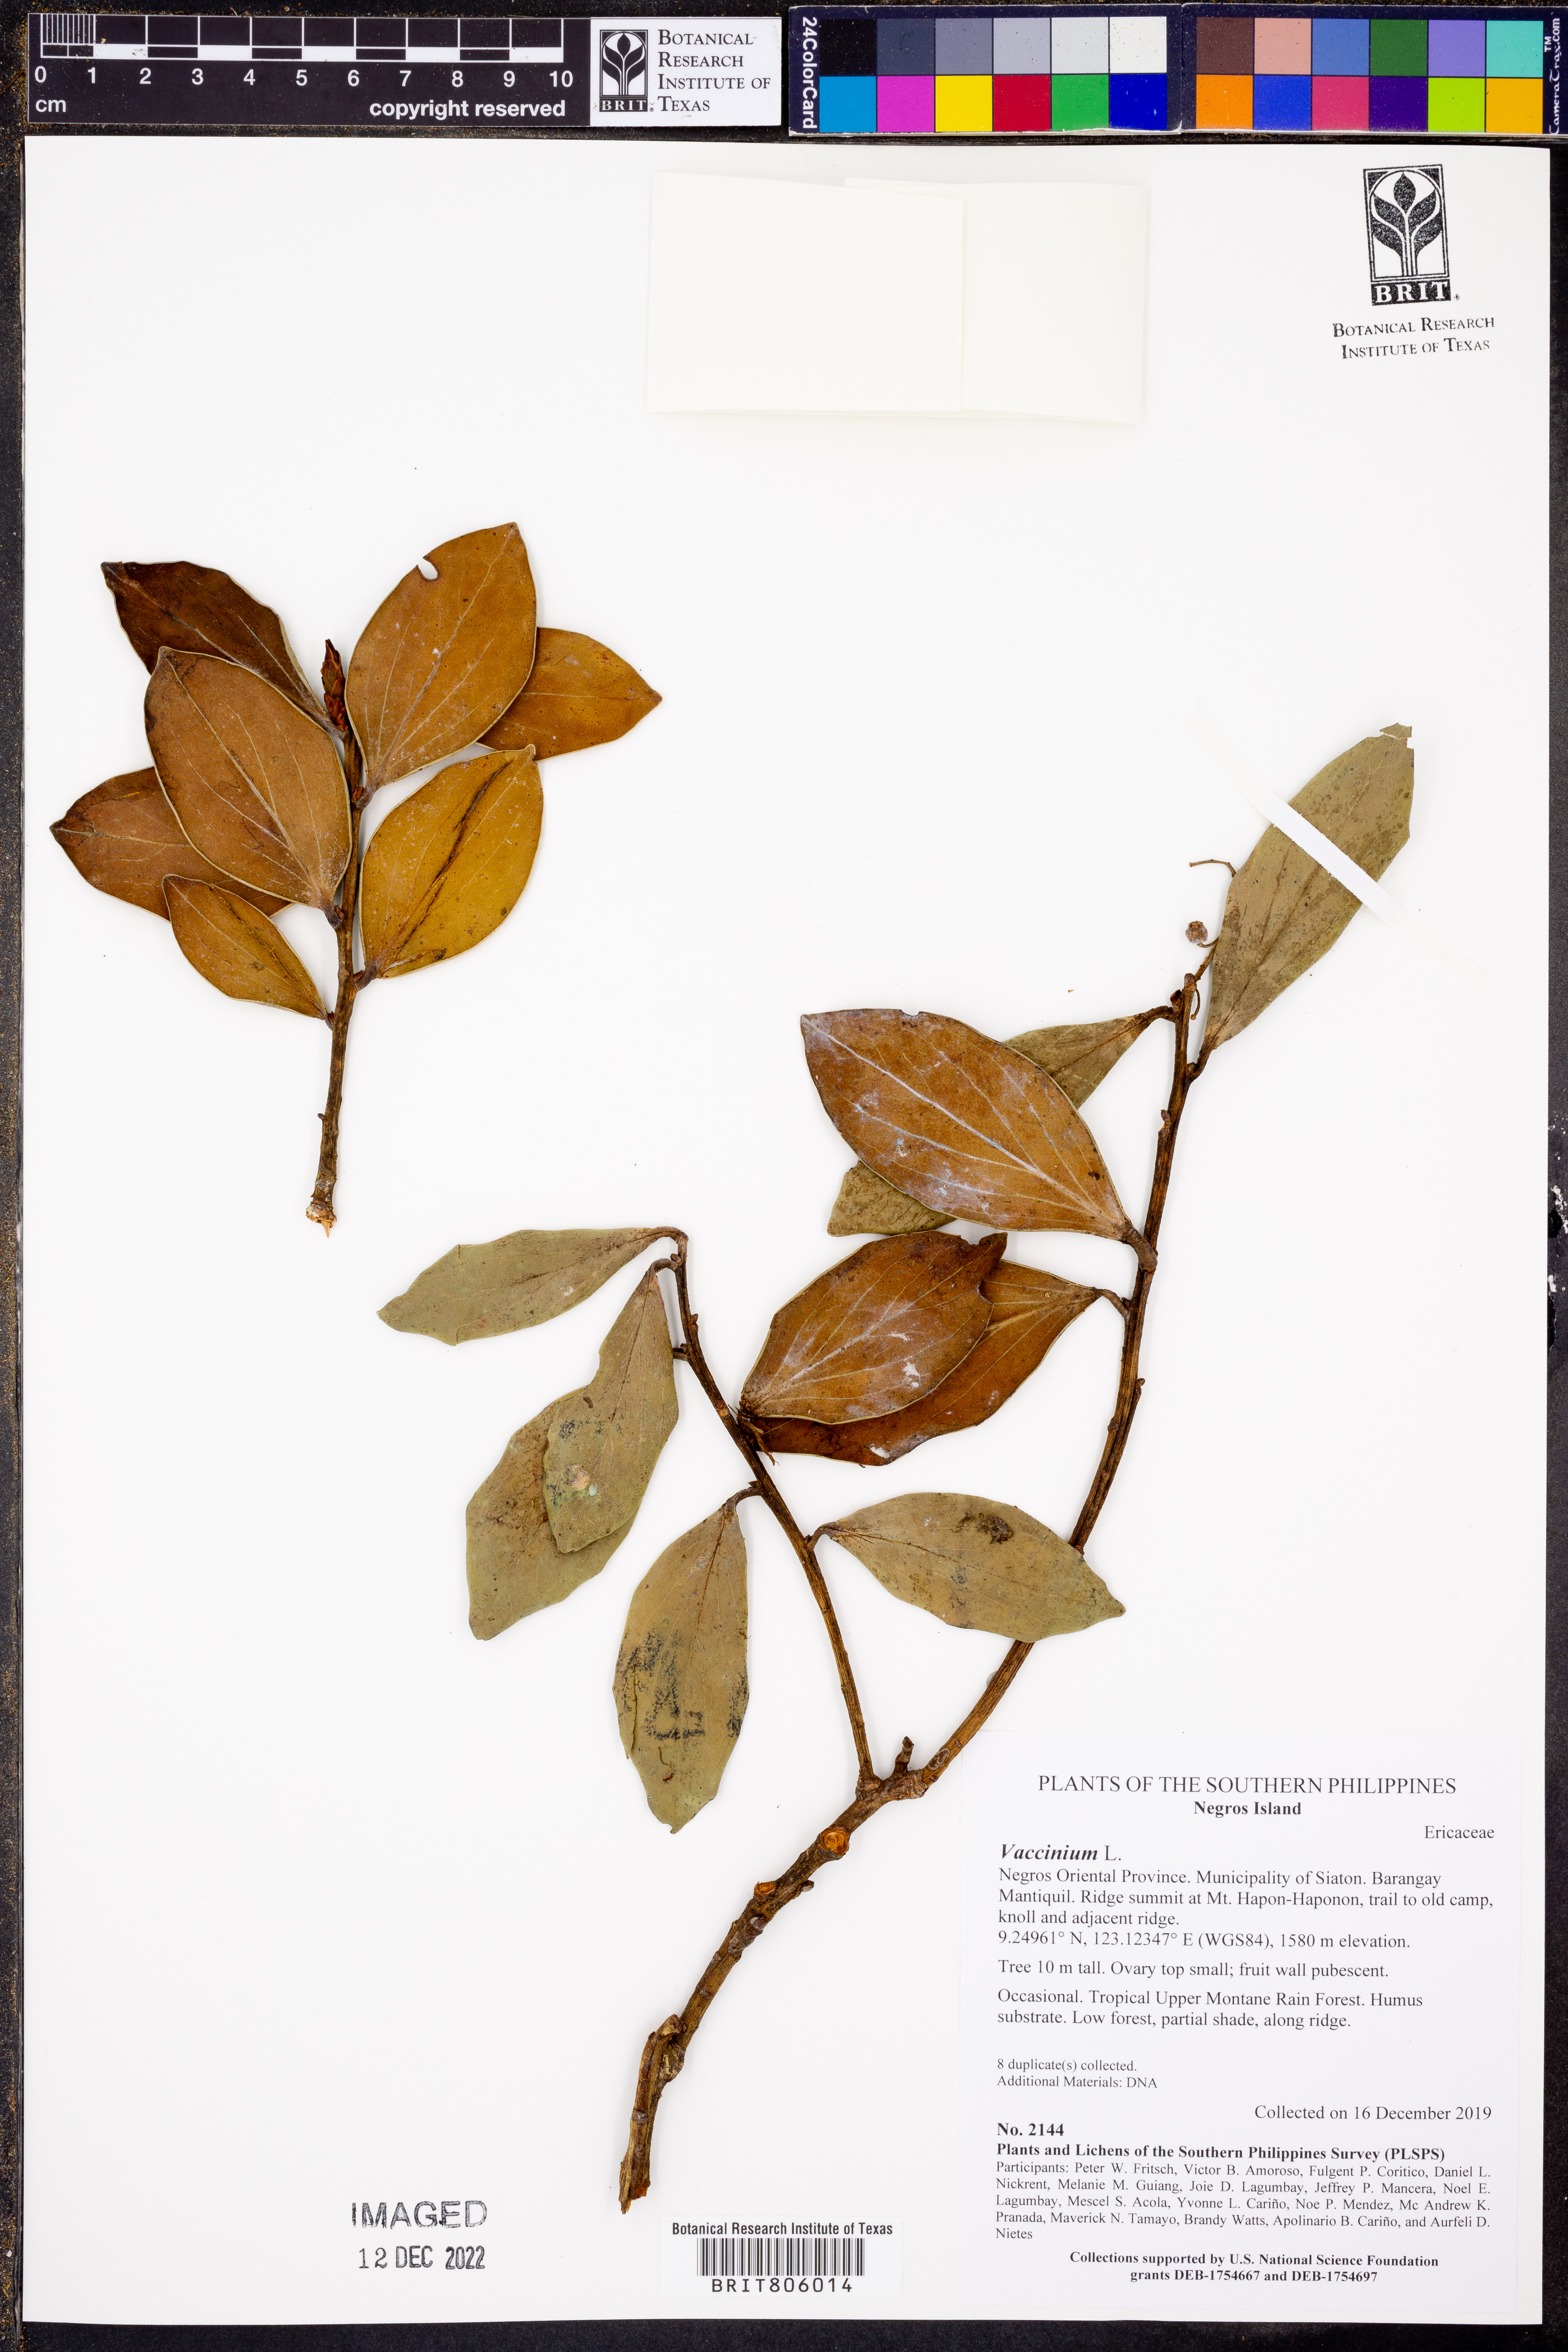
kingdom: Plantae
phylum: Tracheophyta
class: Magnoliopsida
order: Ericales
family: Ericaceae
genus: Vaccinium
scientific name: Vaccinium
